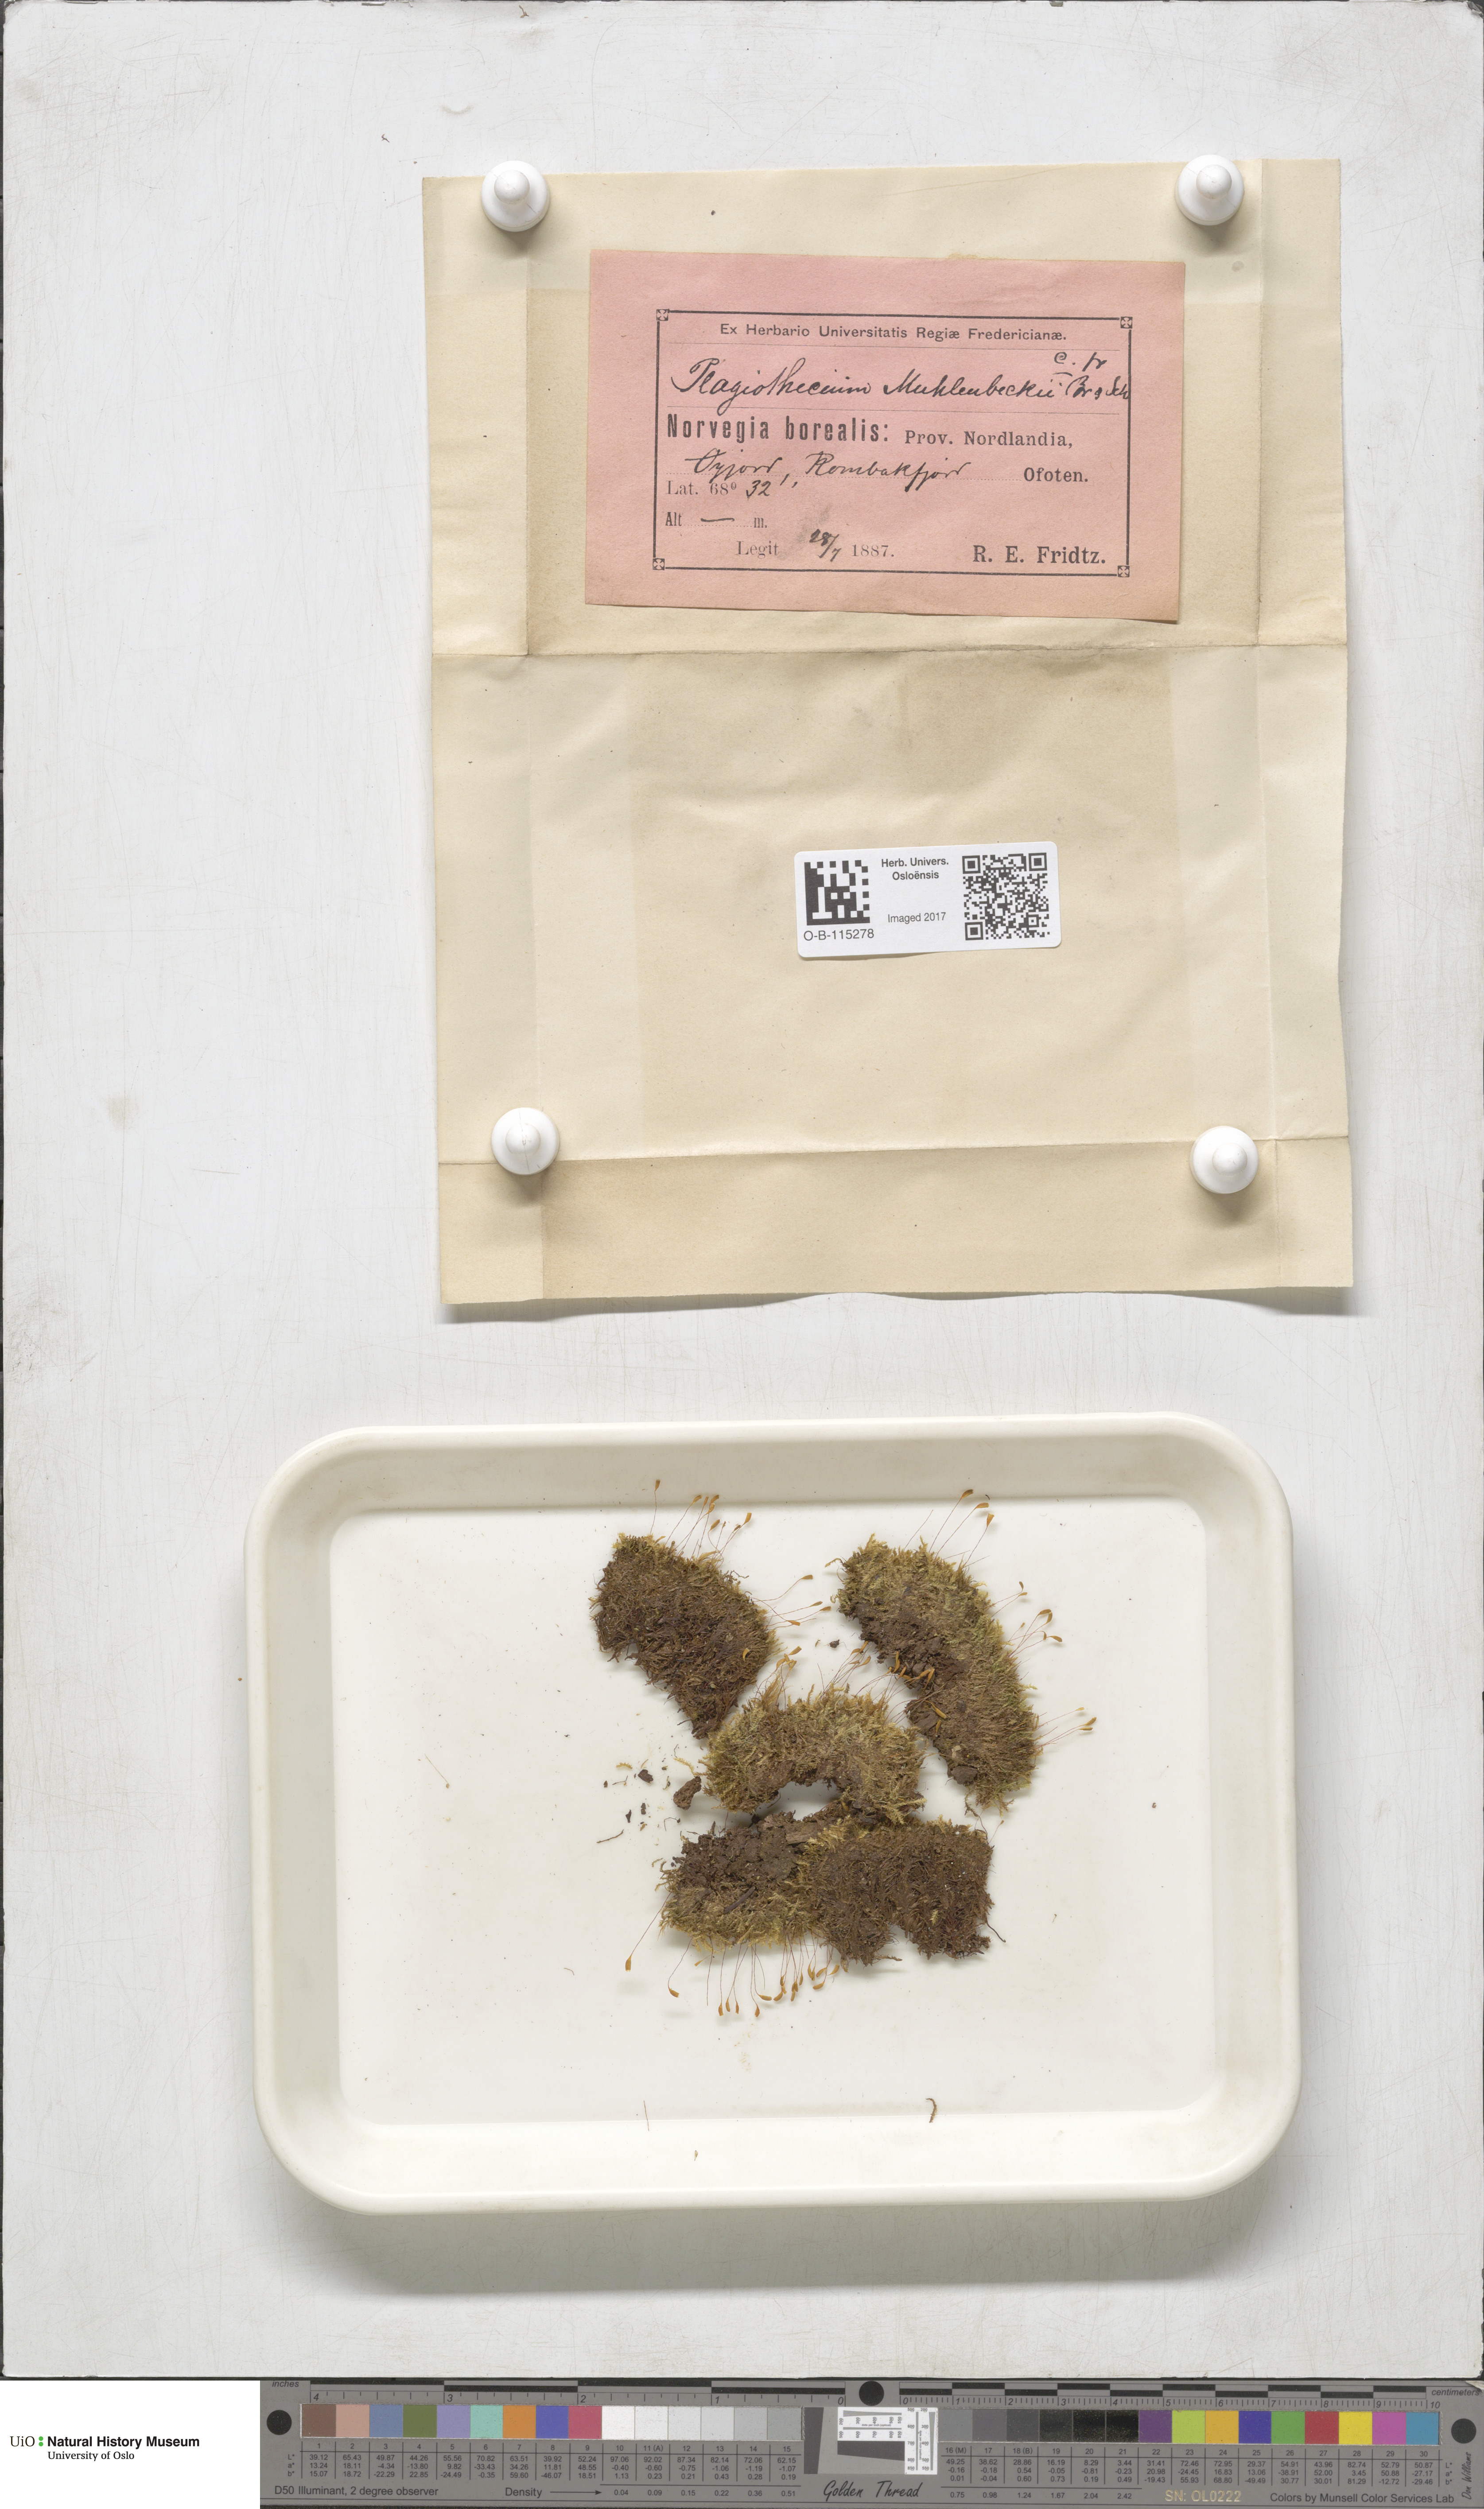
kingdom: Plantae
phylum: Bryophyta
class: Bryopsida
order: Hypnales
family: Plagiotheciaceae
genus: Herzogiella
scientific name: Herzogiella striatella
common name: Muhlenbeck's feather-moss
